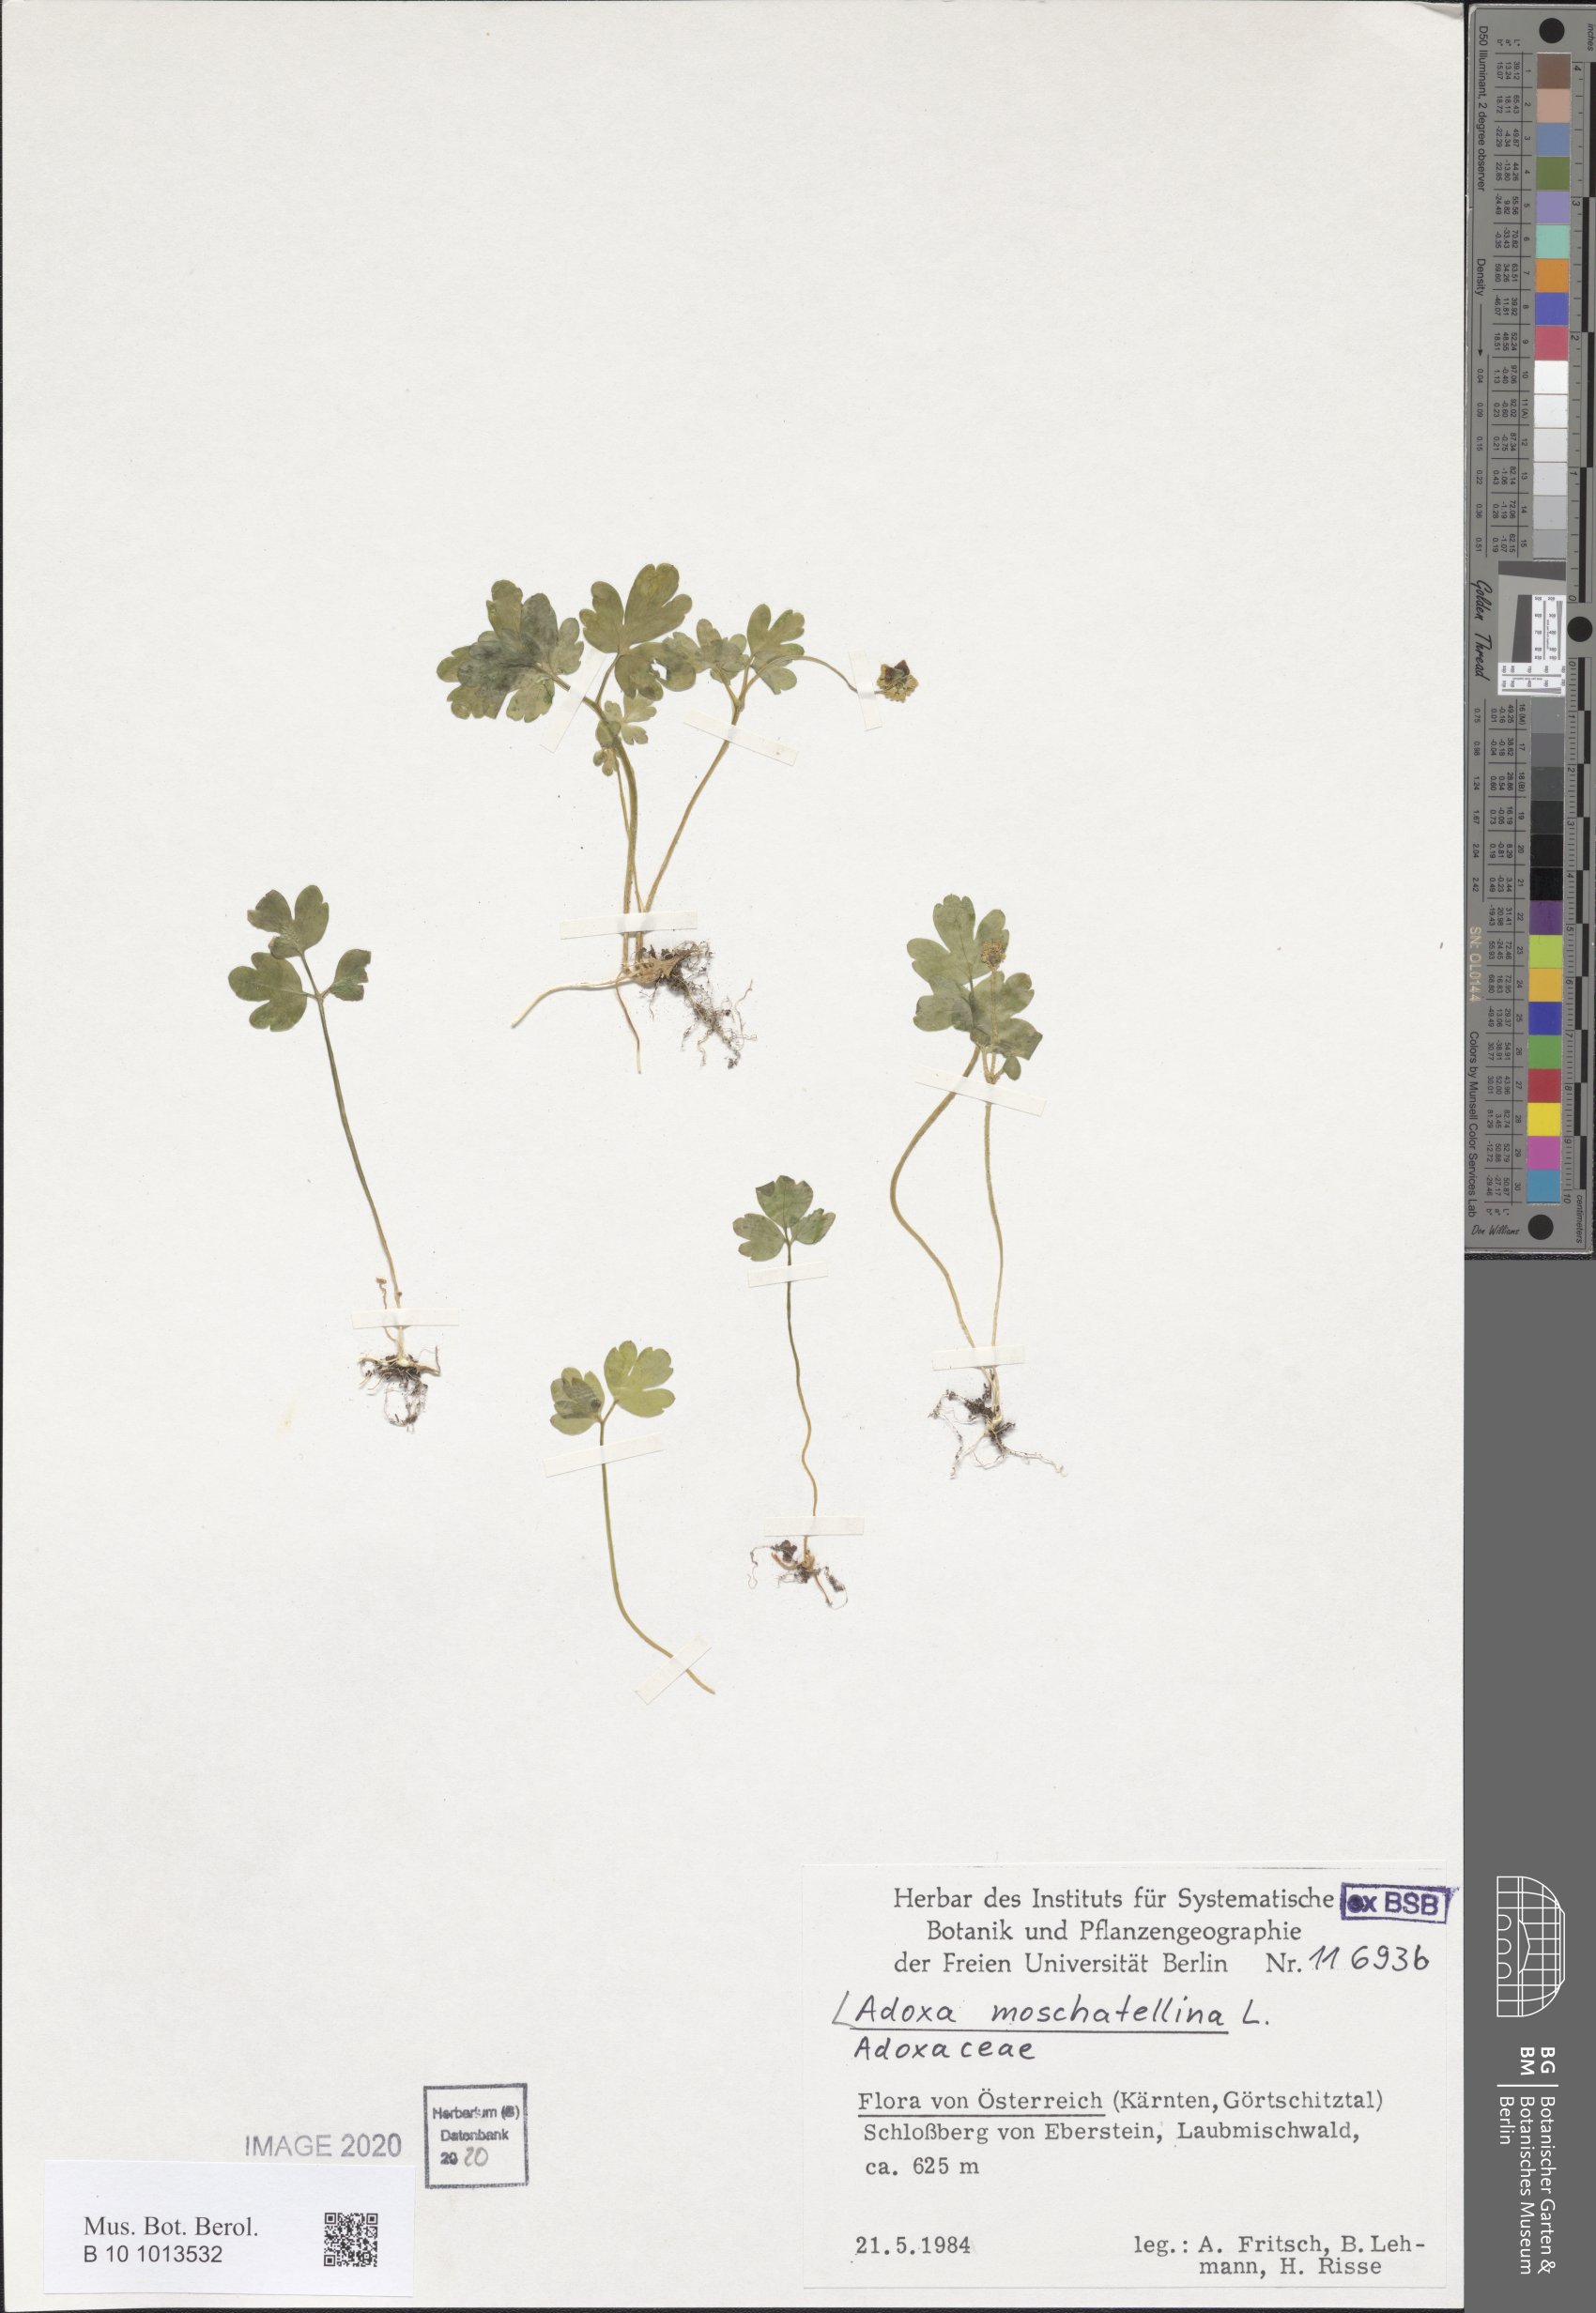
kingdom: Plantae
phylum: Tracheophyta
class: Magnoliopsida
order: Dipsacales
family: Viburnaceae
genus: Adoxa
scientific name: Adoxa moschatellina
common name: Moschatel
